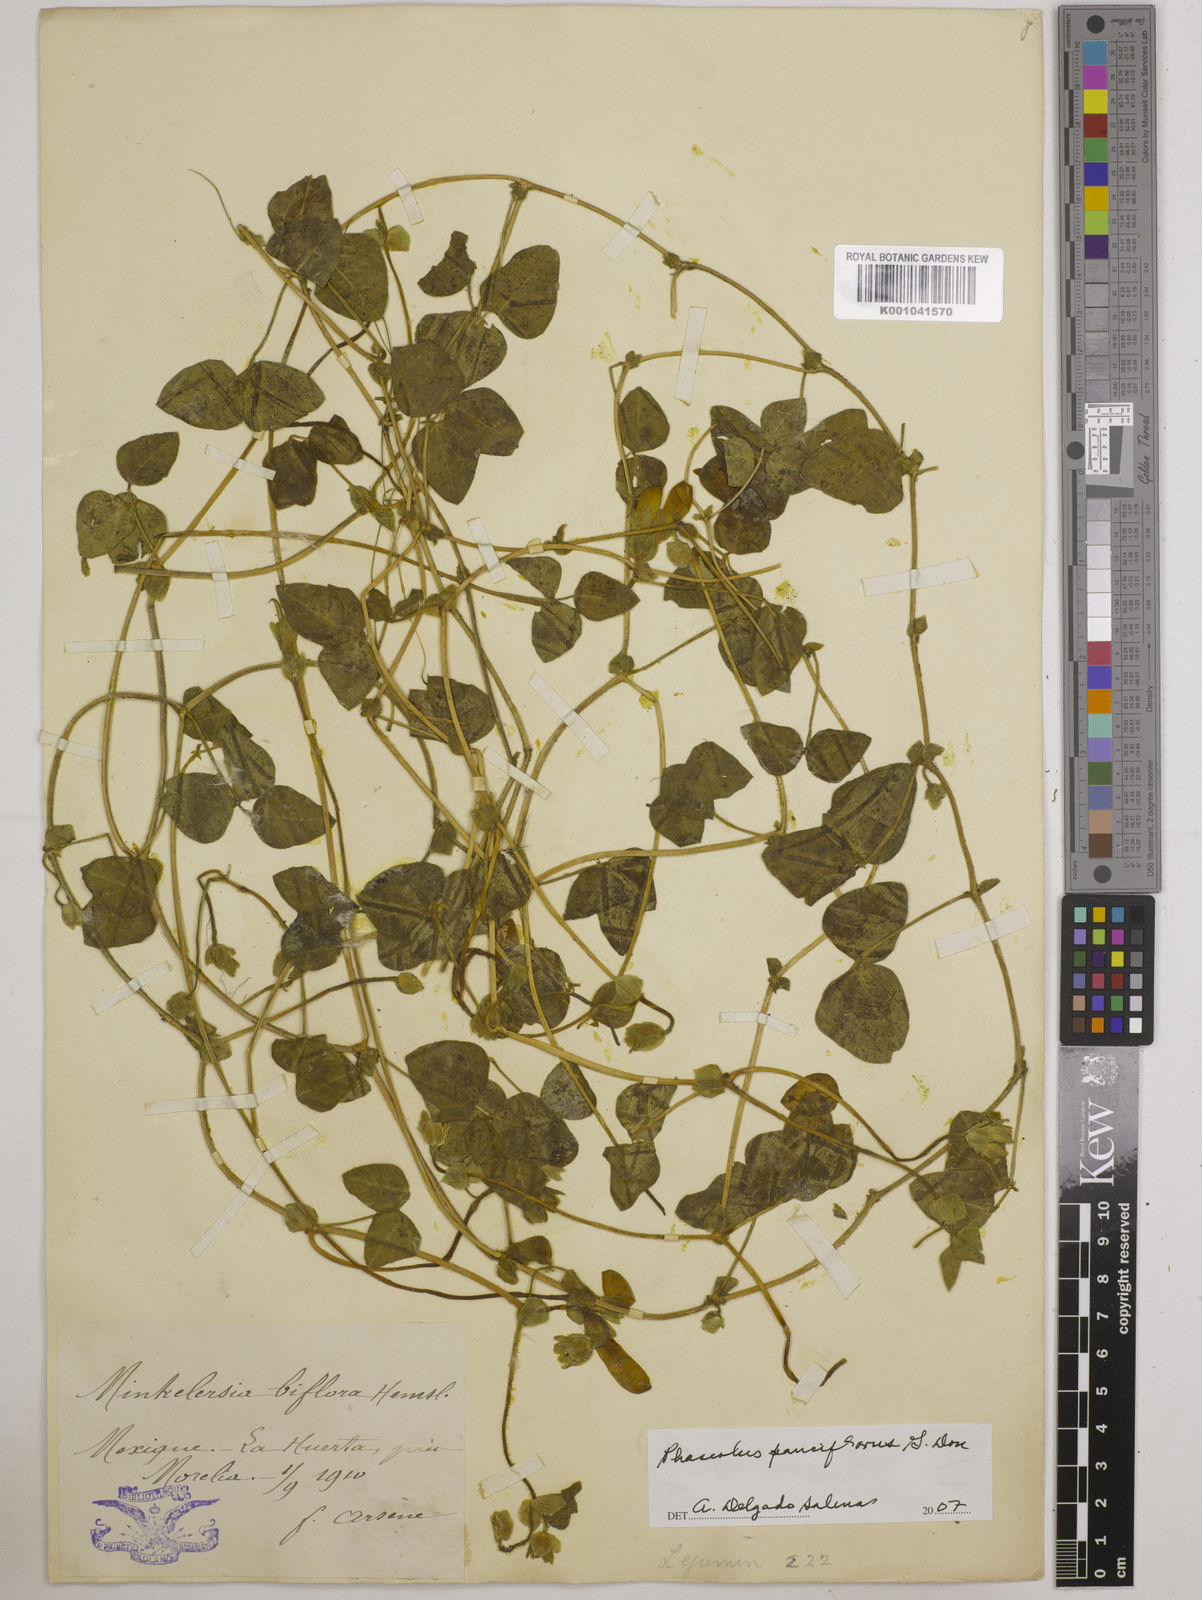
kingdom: Plantae
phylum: Tracheophyta
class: Magnoliopsida
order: Fabales
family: Fabaceae
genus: Phaseolus
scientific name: Phaseolus
